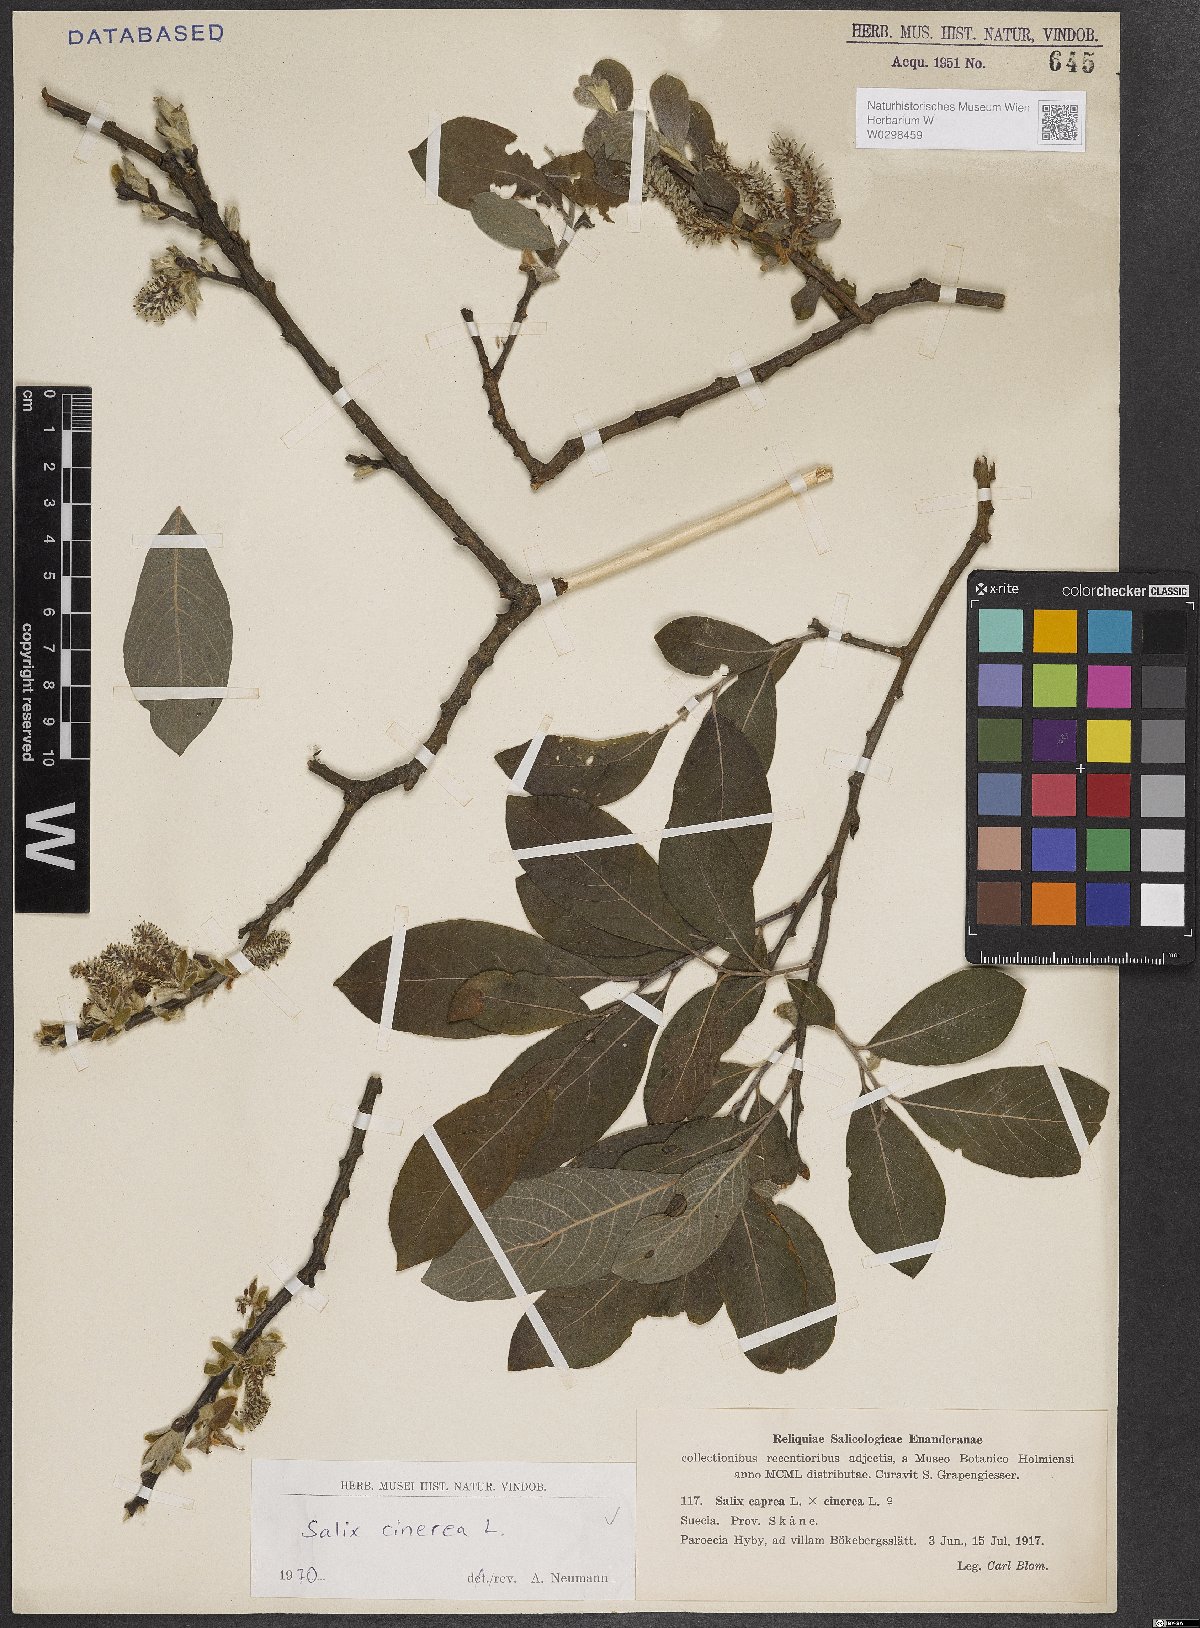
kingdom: Plantae
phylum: Tracheophyta
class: Magnoliopsida
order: Malpighiales
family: Salicaceae
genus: Salix
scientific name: Salix cinerea
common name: Common sallow
